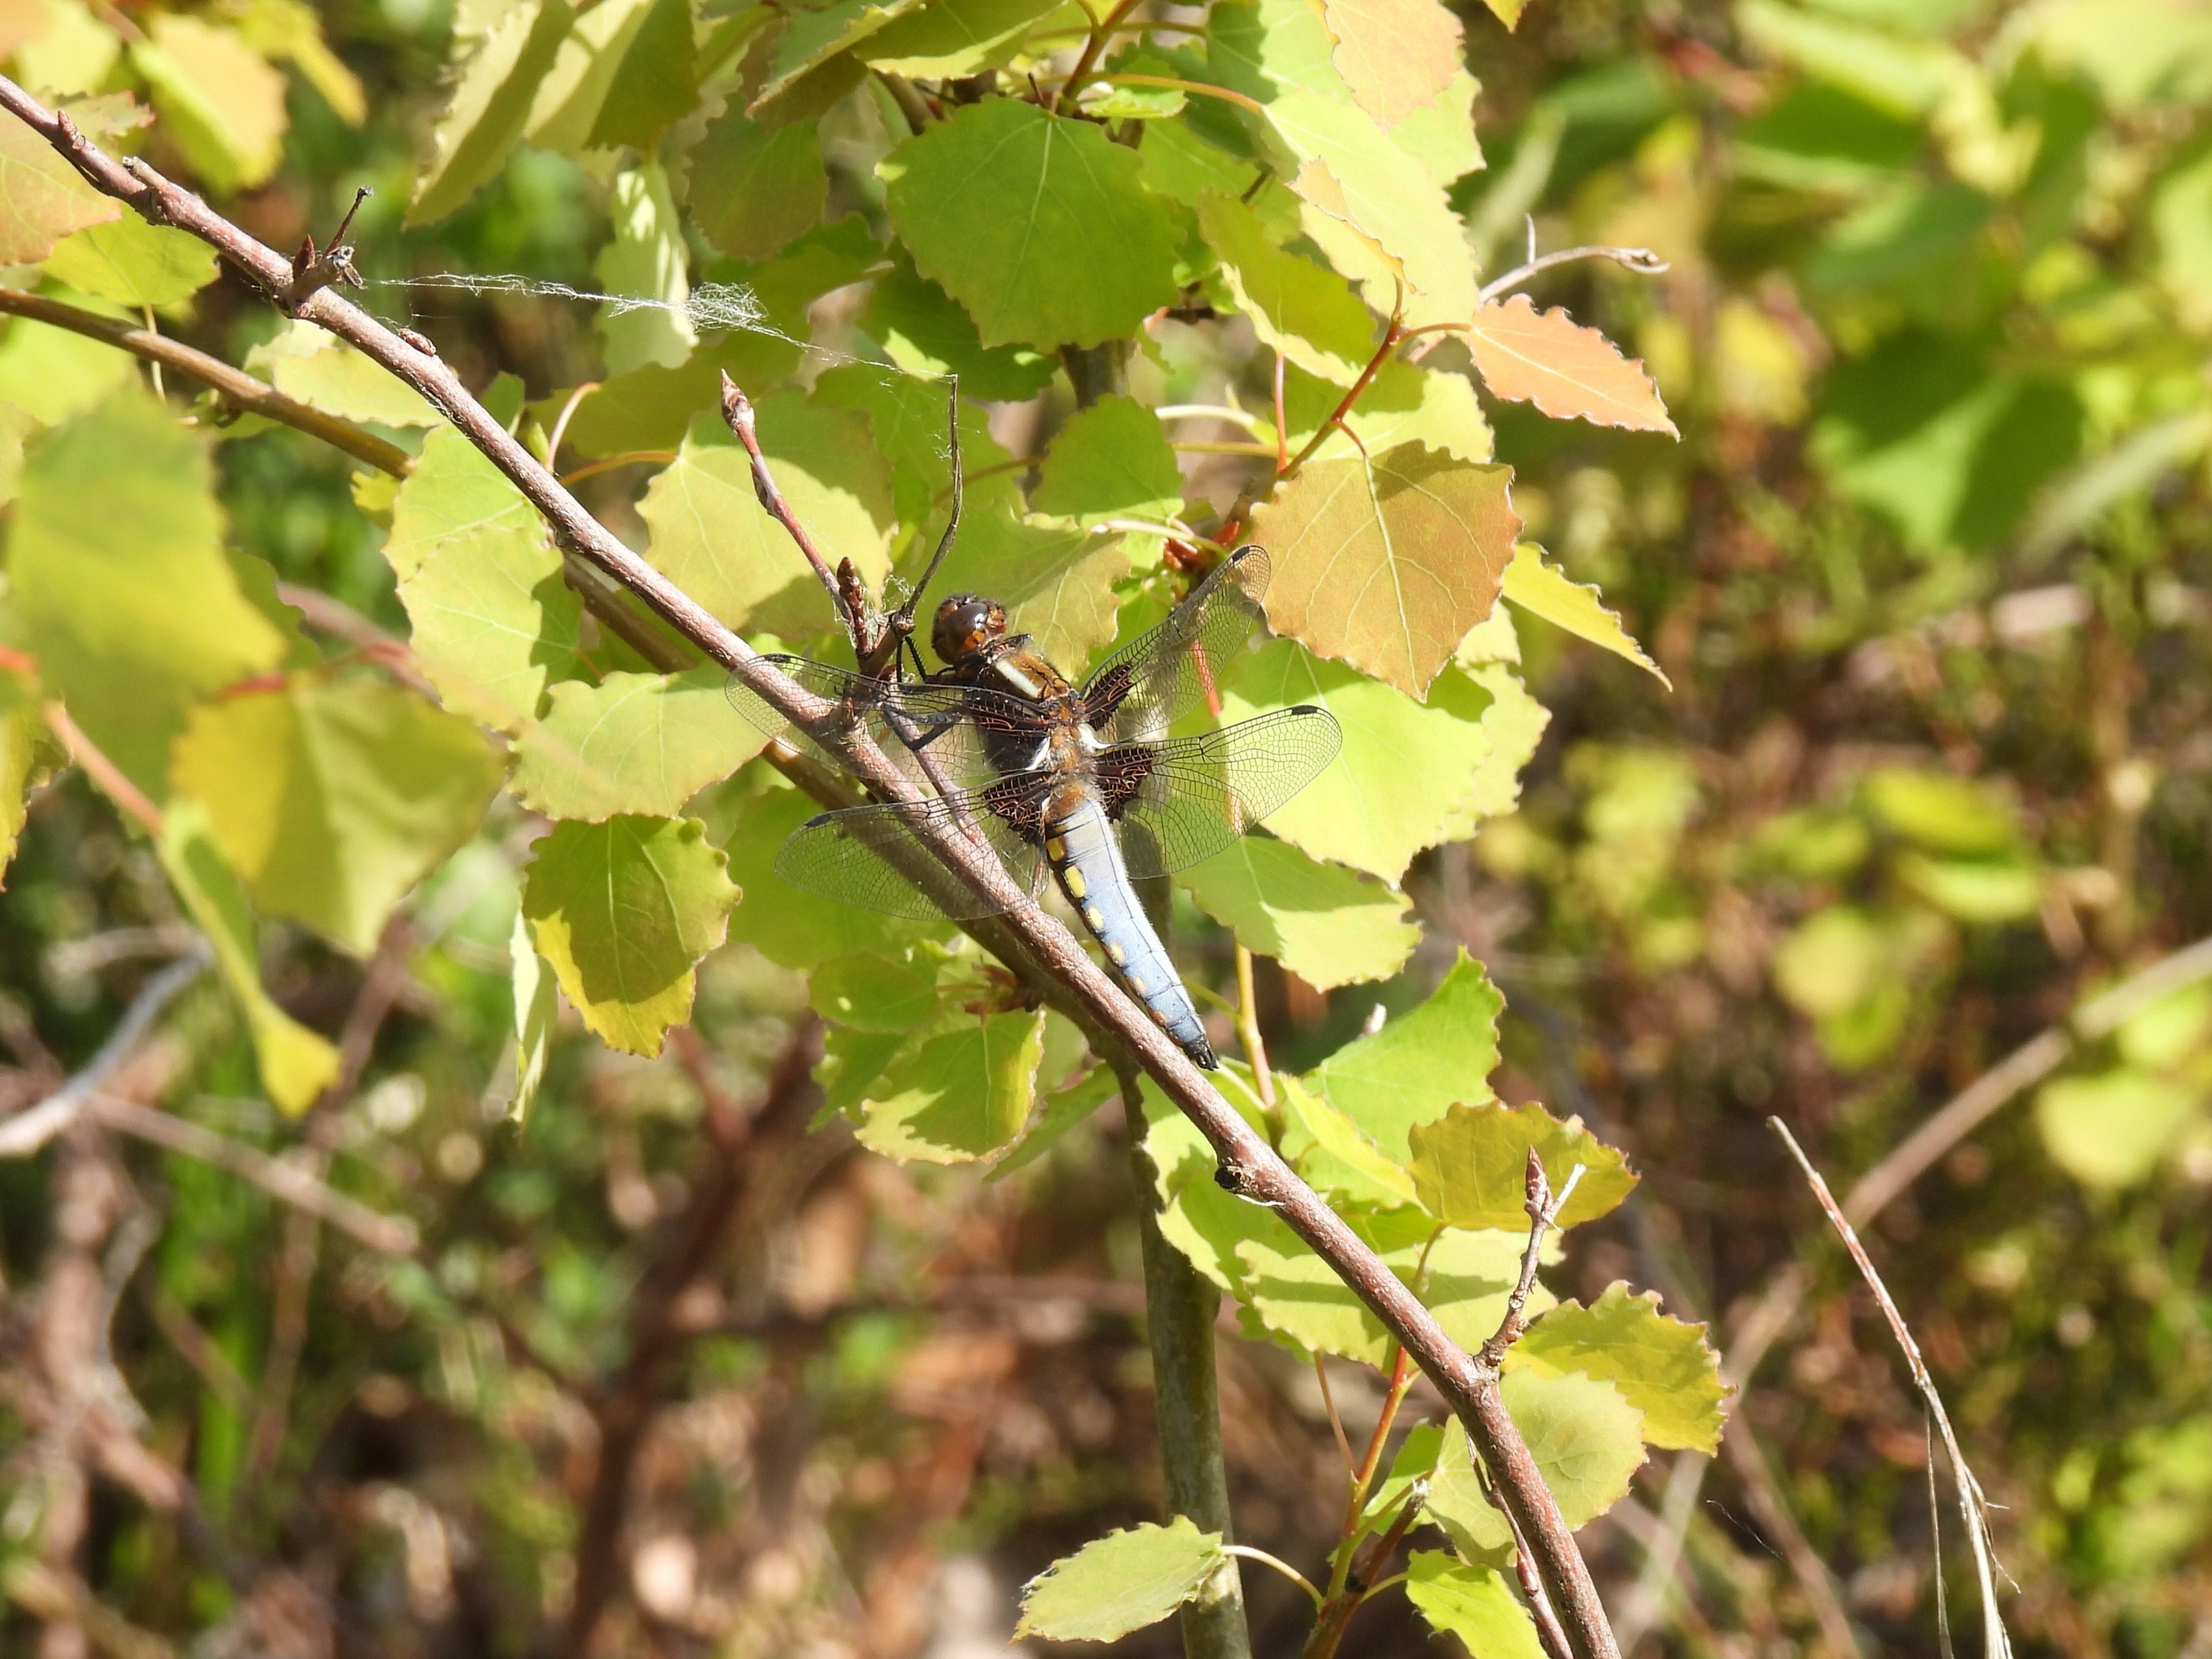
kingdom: Animalia
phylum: Arthropoda
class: Insecta
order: Odonata
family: Libellulidae
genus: Libellula
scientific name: Libellula depressa
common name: Blå libel
